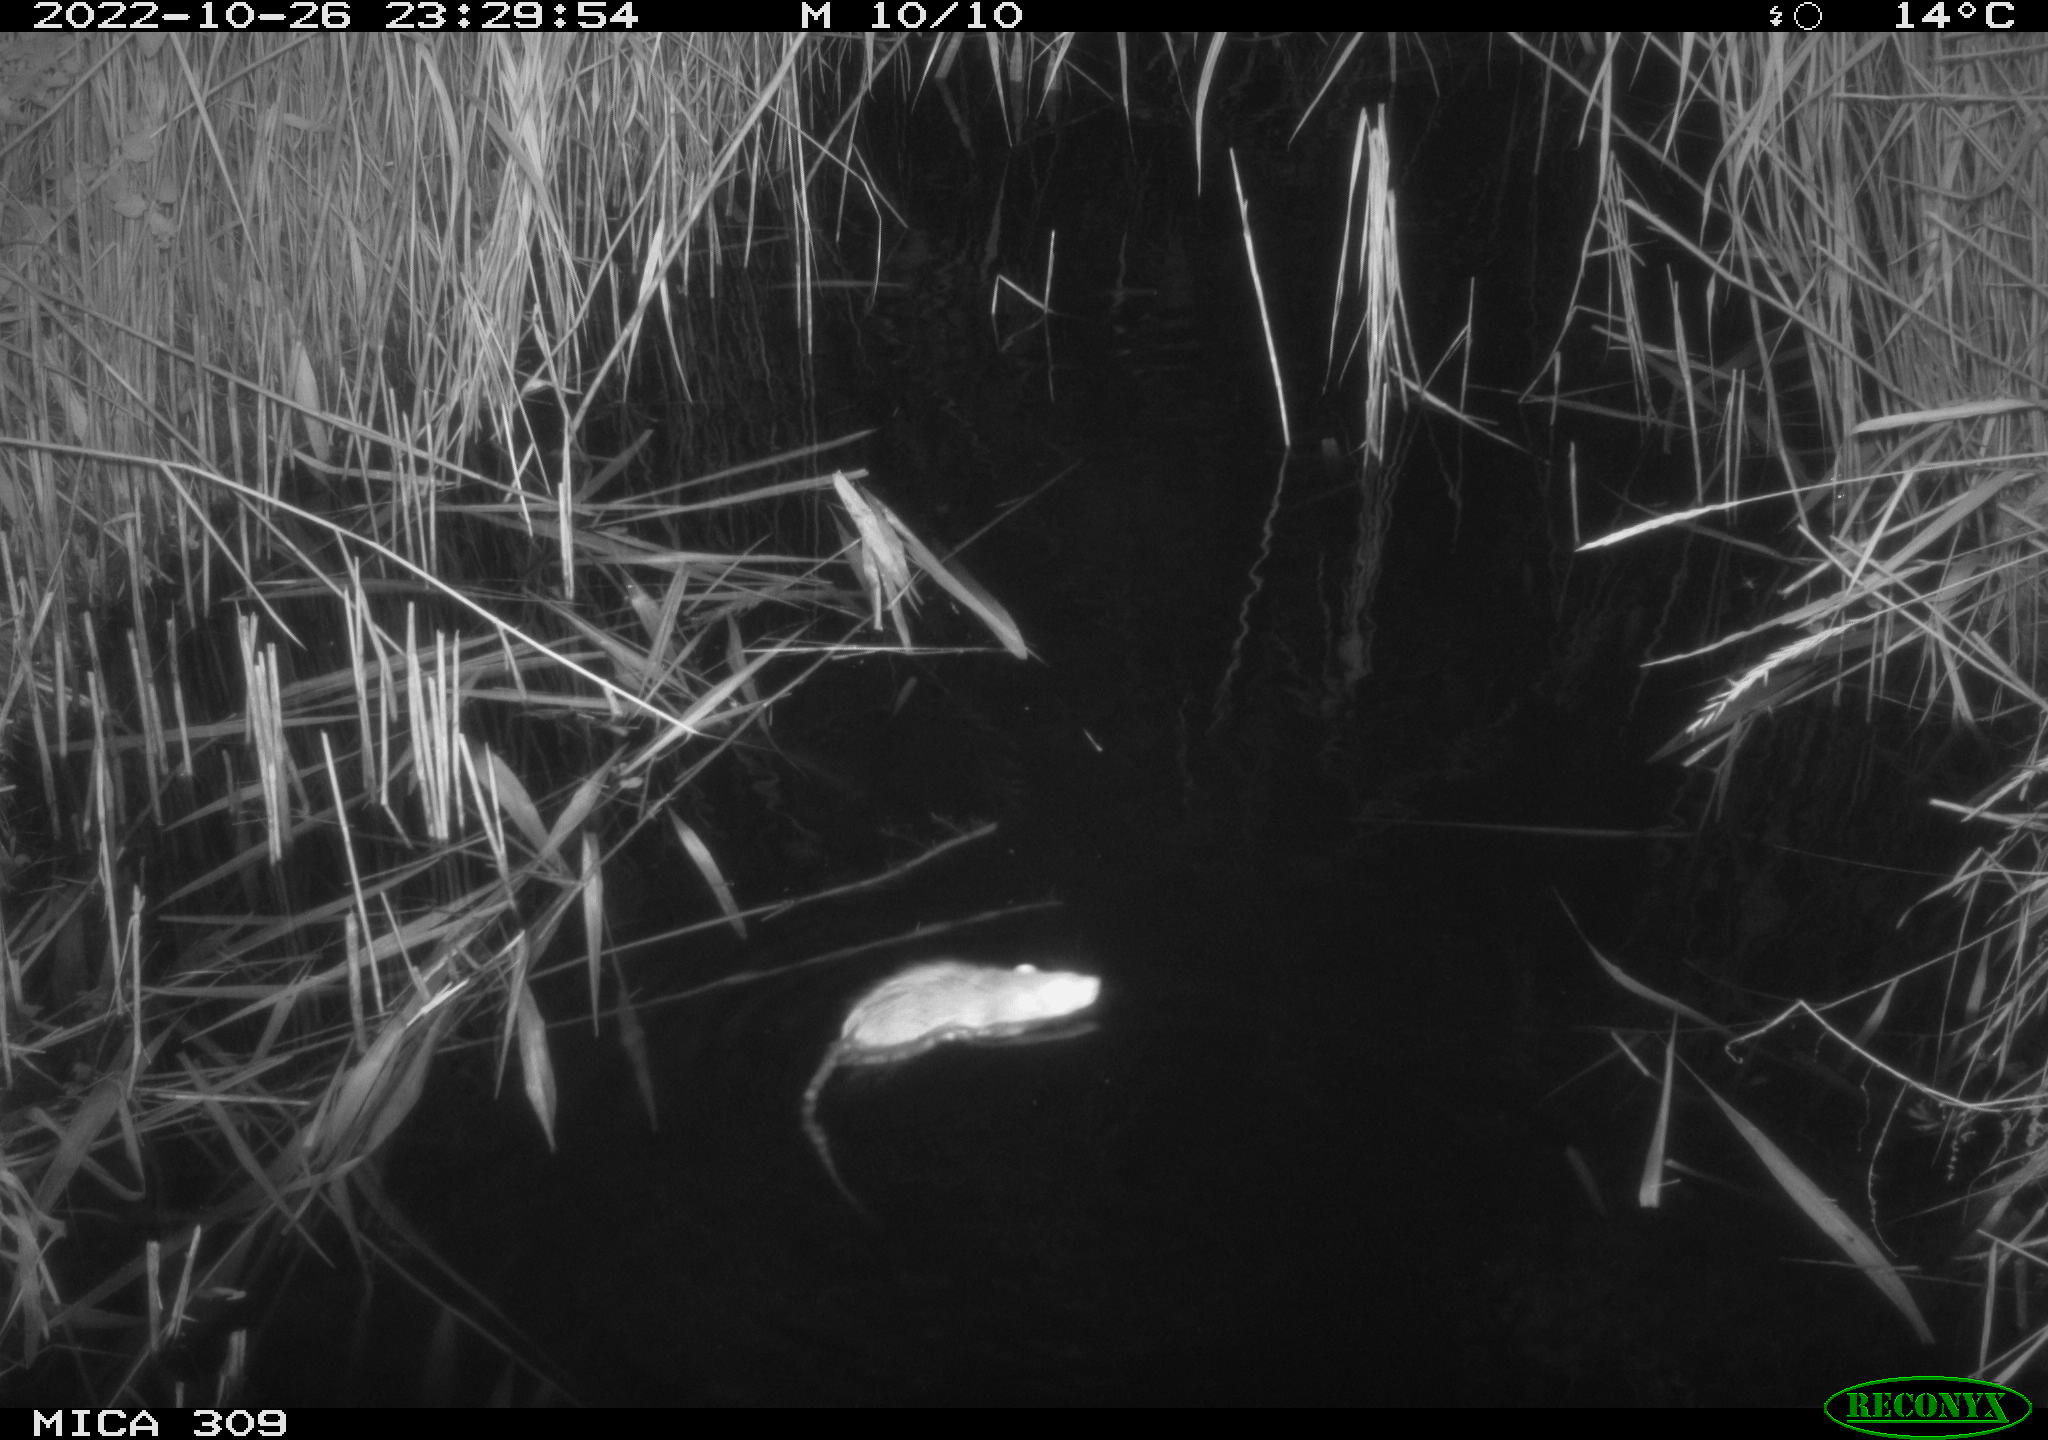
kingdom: Animalia
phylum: Chordata
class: Mammalia
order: Rodentia
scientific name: Rodentia
